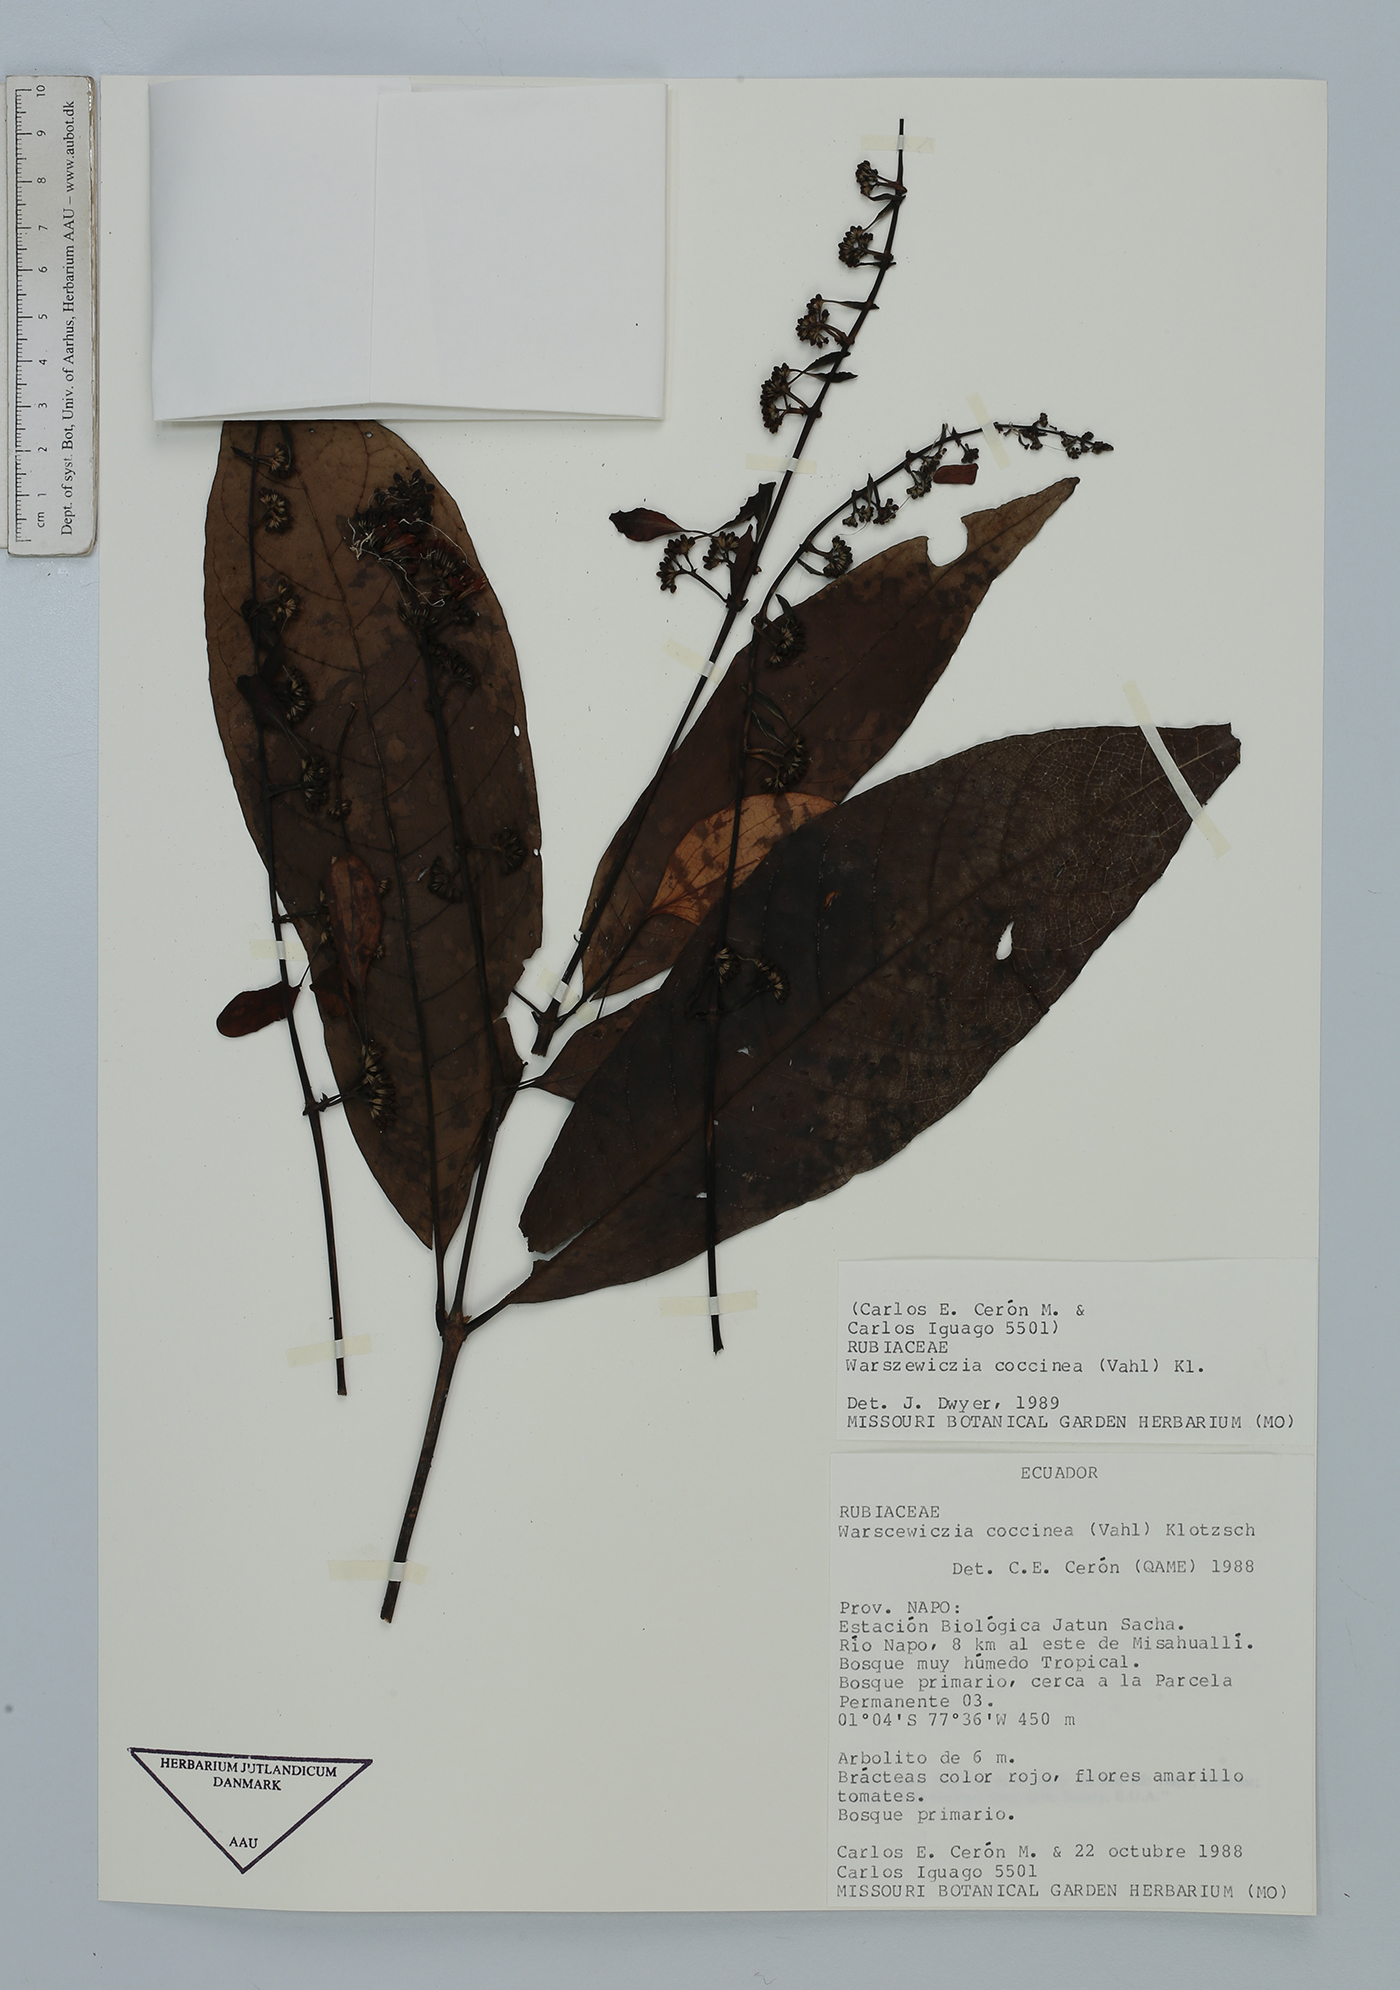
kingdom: Plantae
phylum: Tracheophyta
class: Magnoliopsida
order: Gentianales
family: Rubiaceae
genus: Warszewiczia
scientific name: Warszewiczia coccinea
